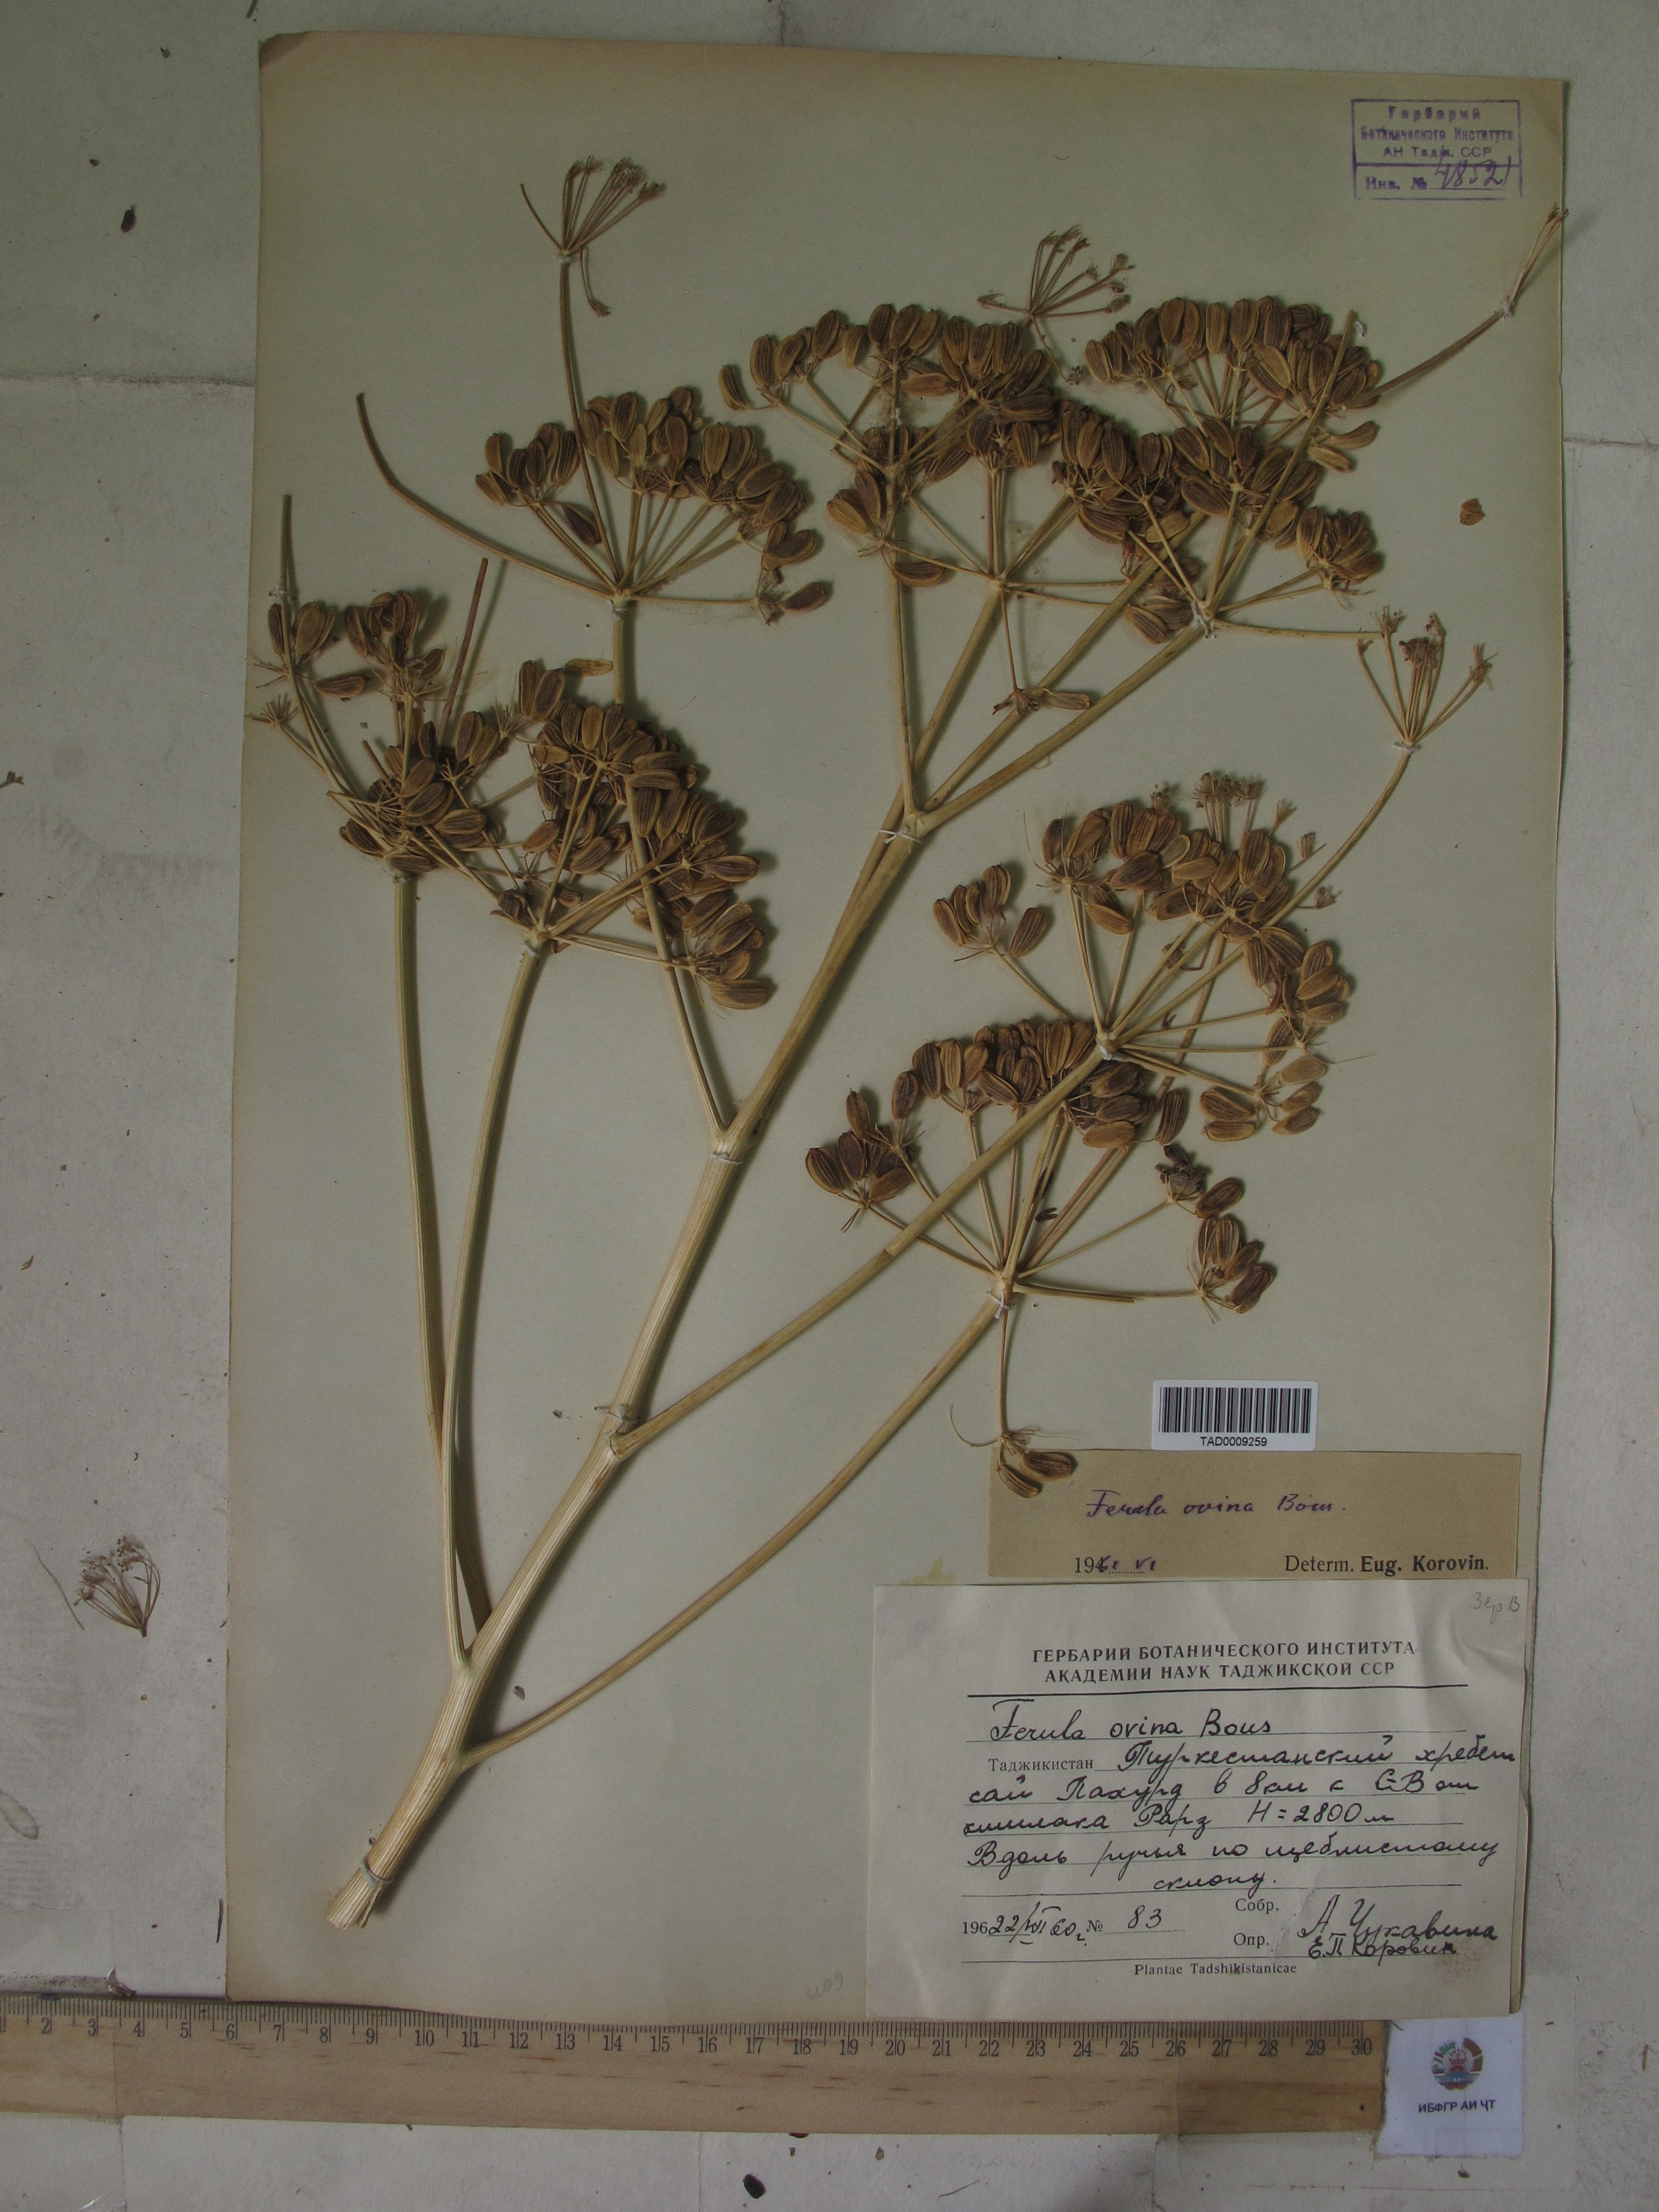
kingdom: Plantae
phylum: Tracheophyta
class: Magnoliopsida
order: Apiales
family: Apiaceae
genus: Ferula
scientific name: Ferula ovina
